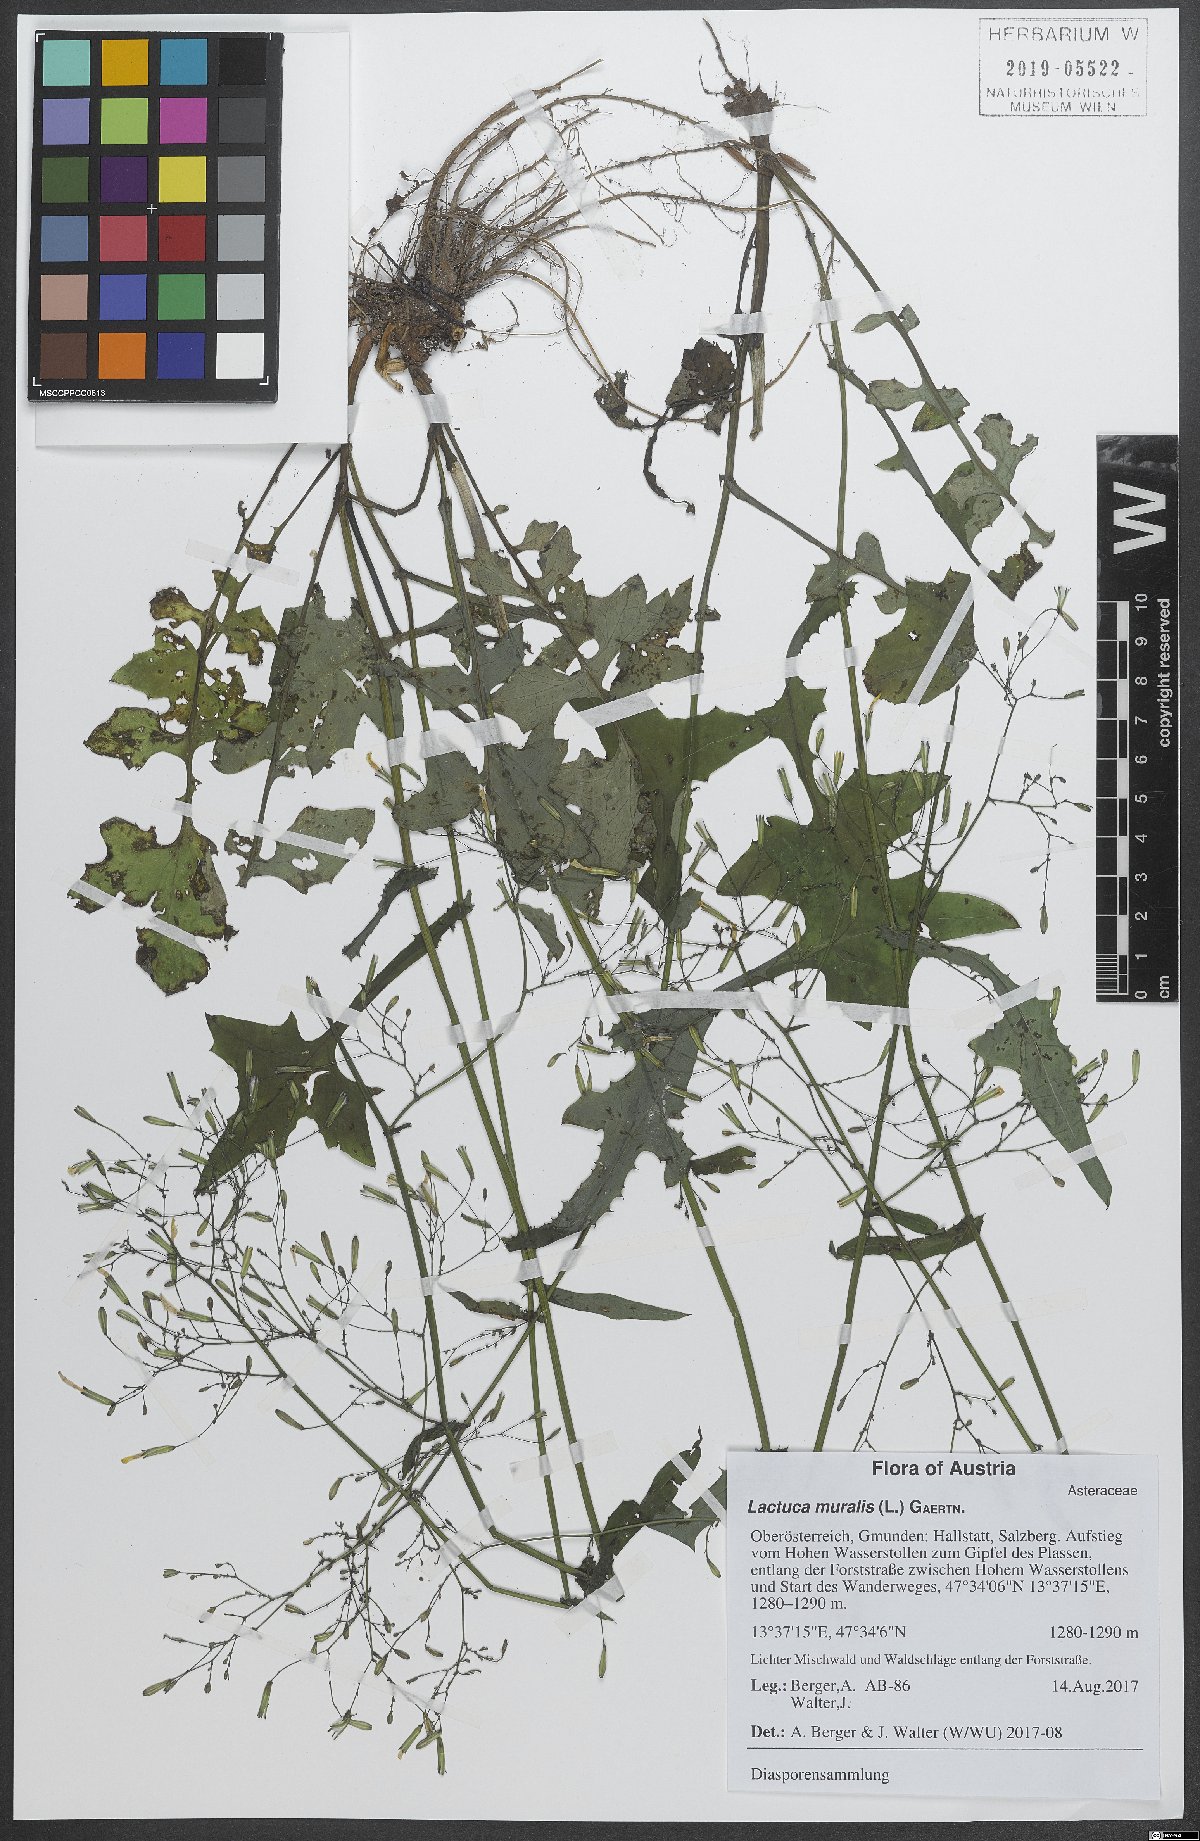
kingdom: Plantae
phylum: Tracheophyta
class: Magnoliopsida
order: Asterales
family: Asteraceae
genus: Mycelis
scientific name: Mycelis muralis
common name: Wall lettuce
